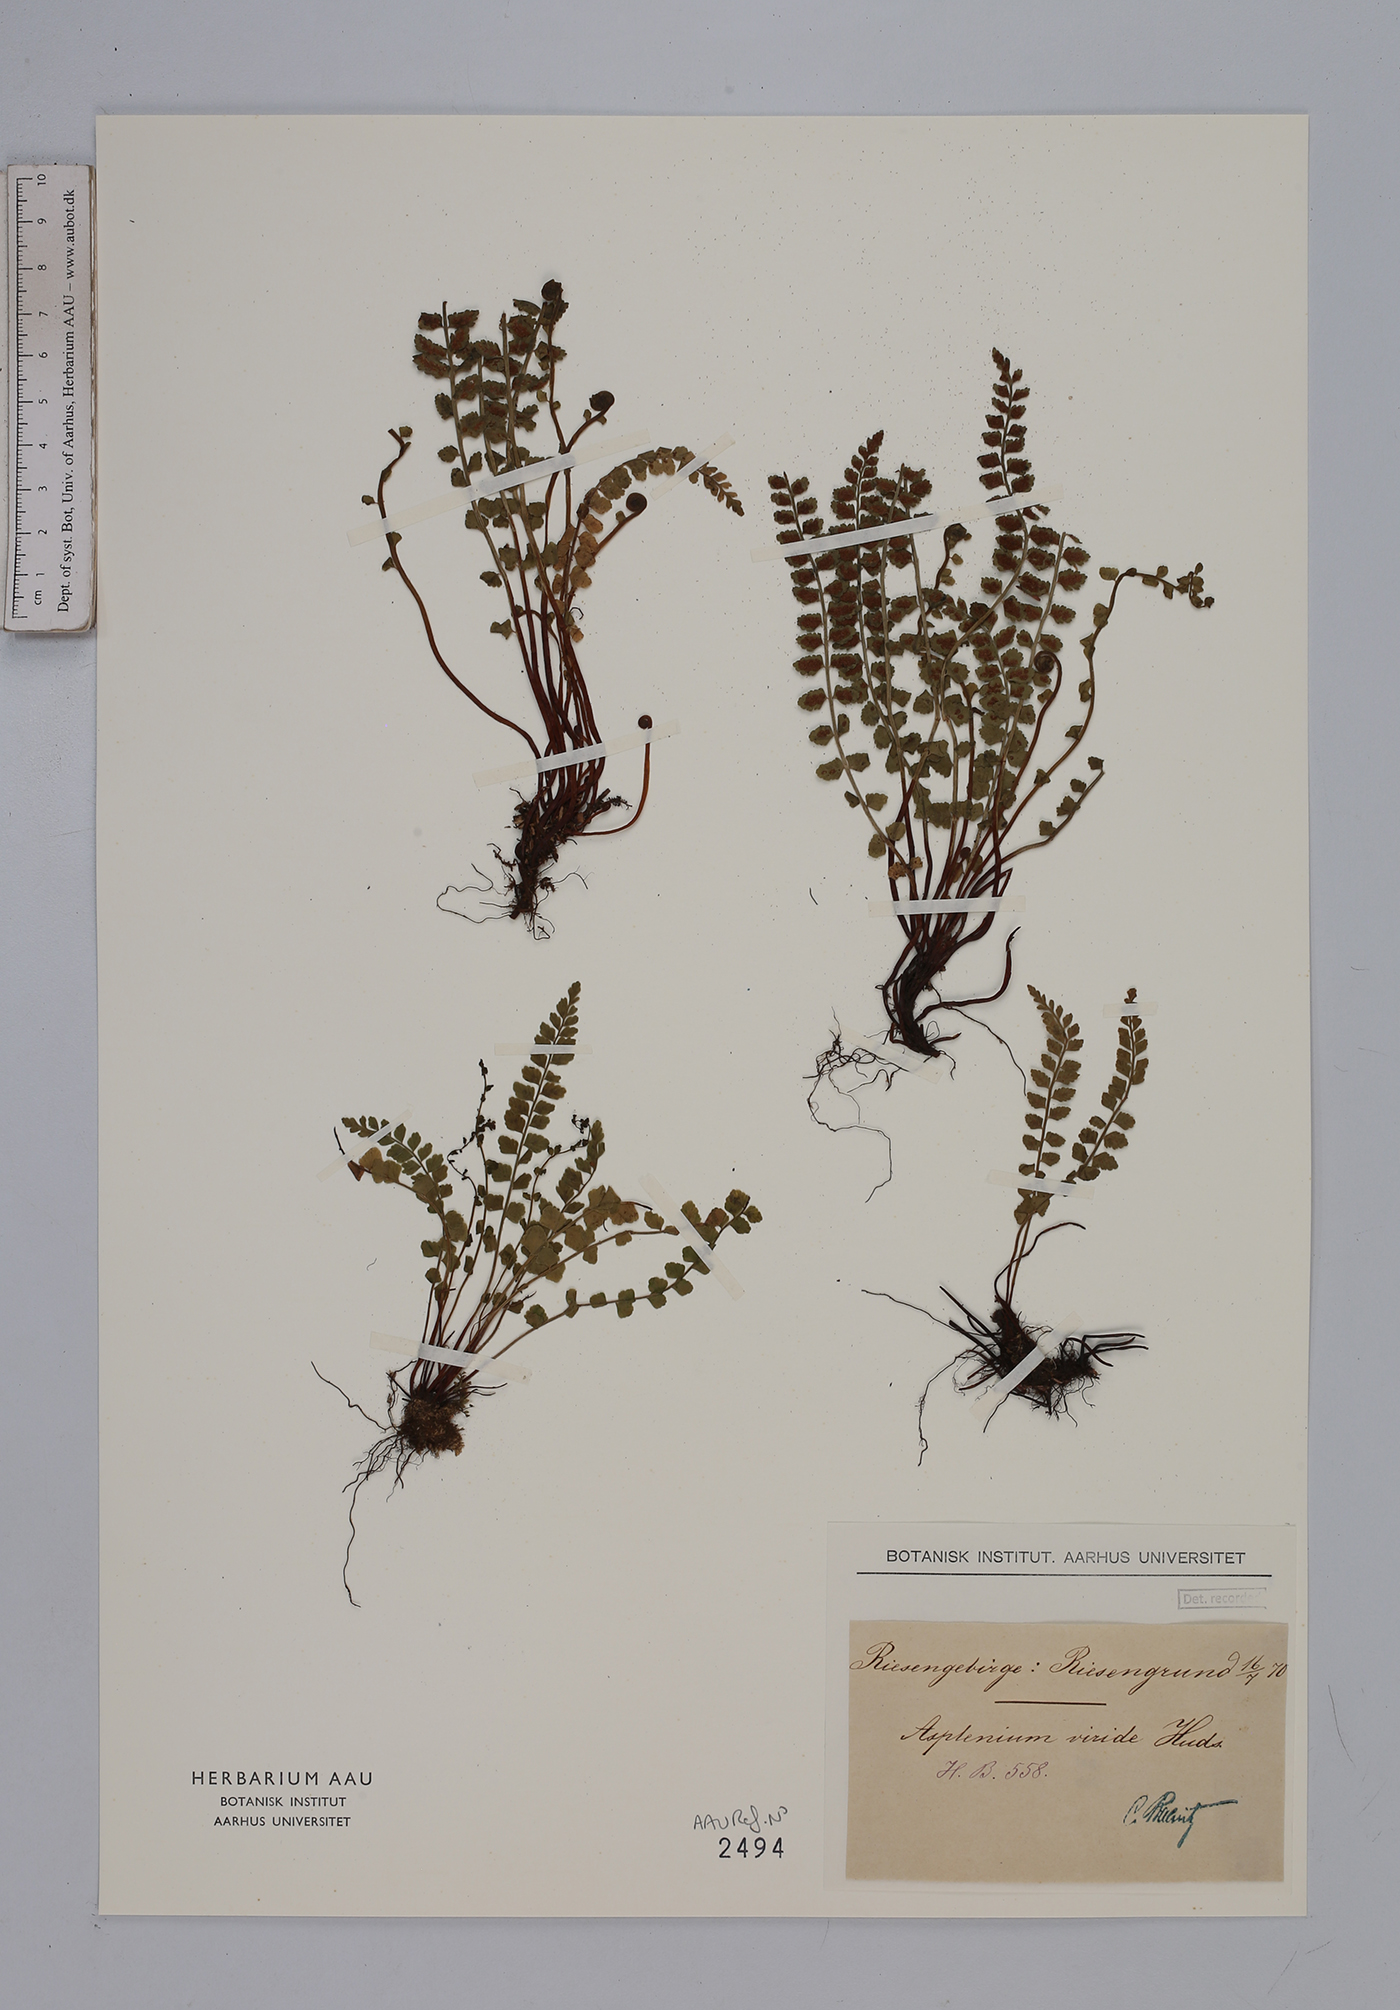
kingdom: Plantae
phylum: Tracheophyta
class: Polypodiopsida
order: Polypodiales
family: Aspleniaceae
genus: Asplenium
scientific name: Asplenium viride
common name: Green spleenwort
